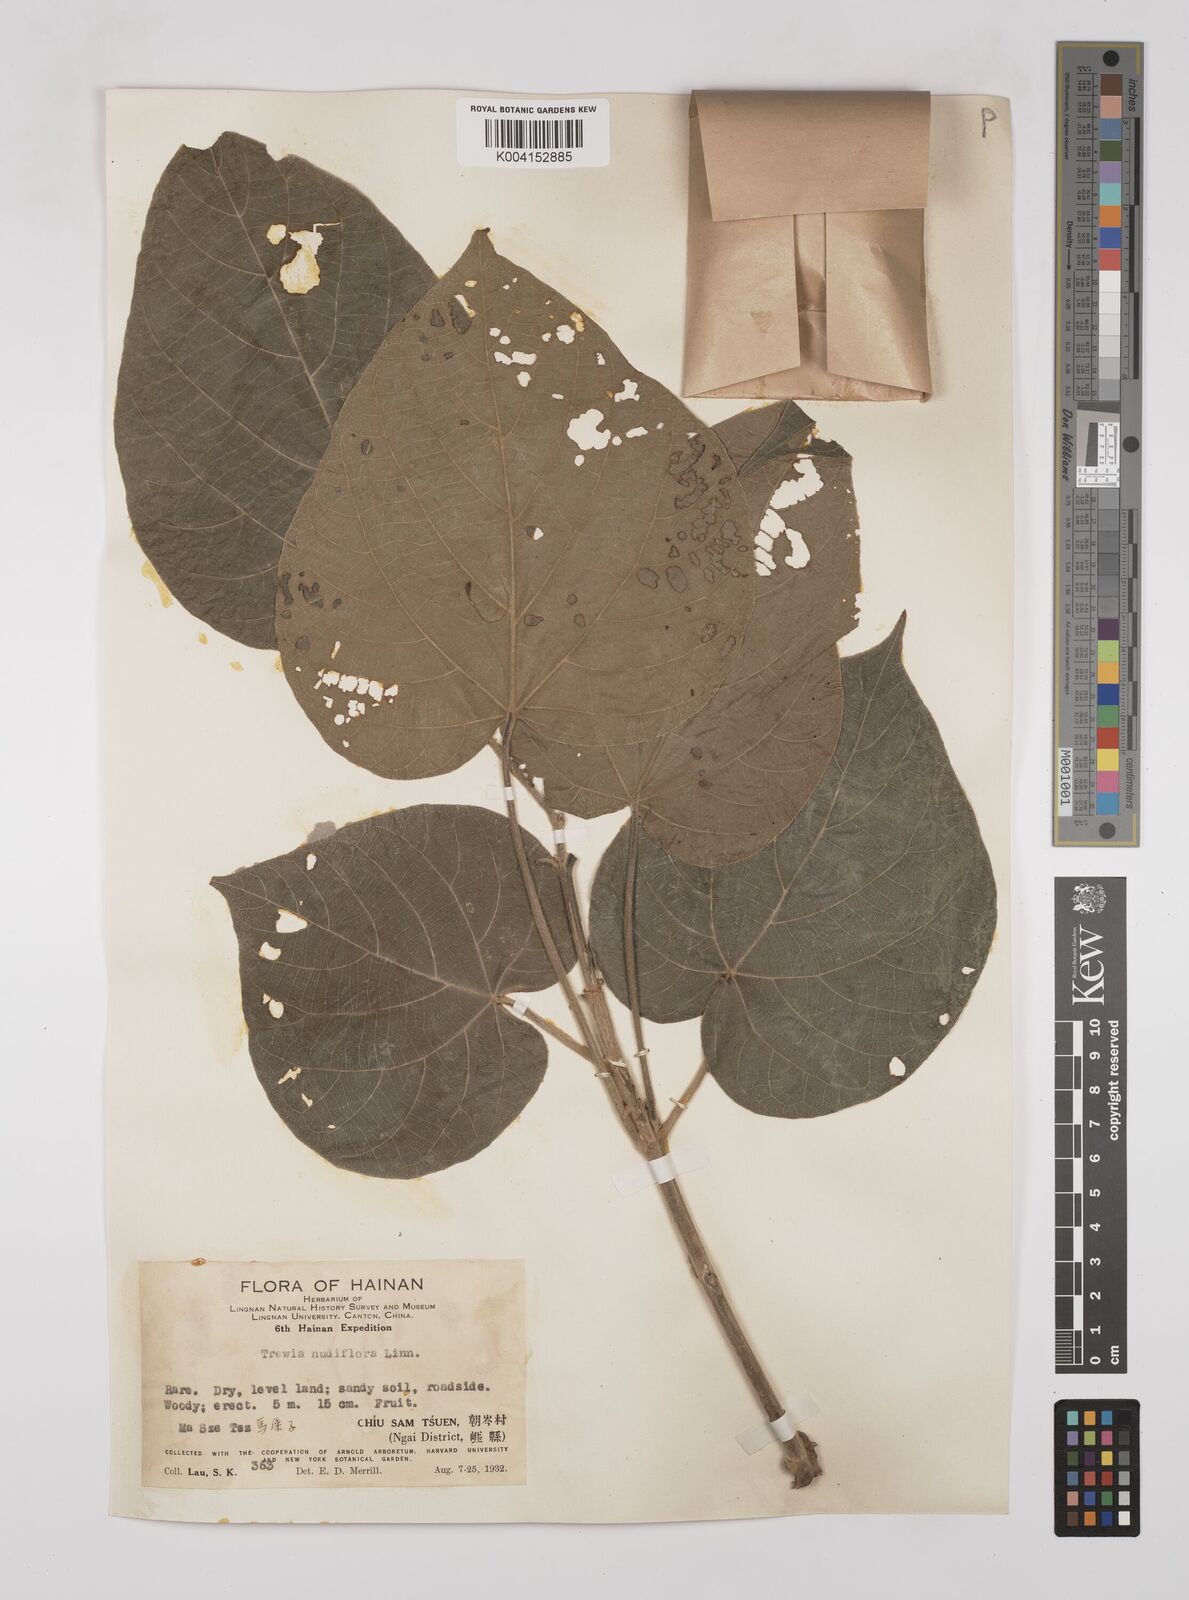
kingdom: Plantae
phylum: Tracheophyta
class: Magnoliopsida
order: Malpighiales
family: Euphorbiaceae
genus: Mallotus
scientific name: Mallotus nudiflorus
